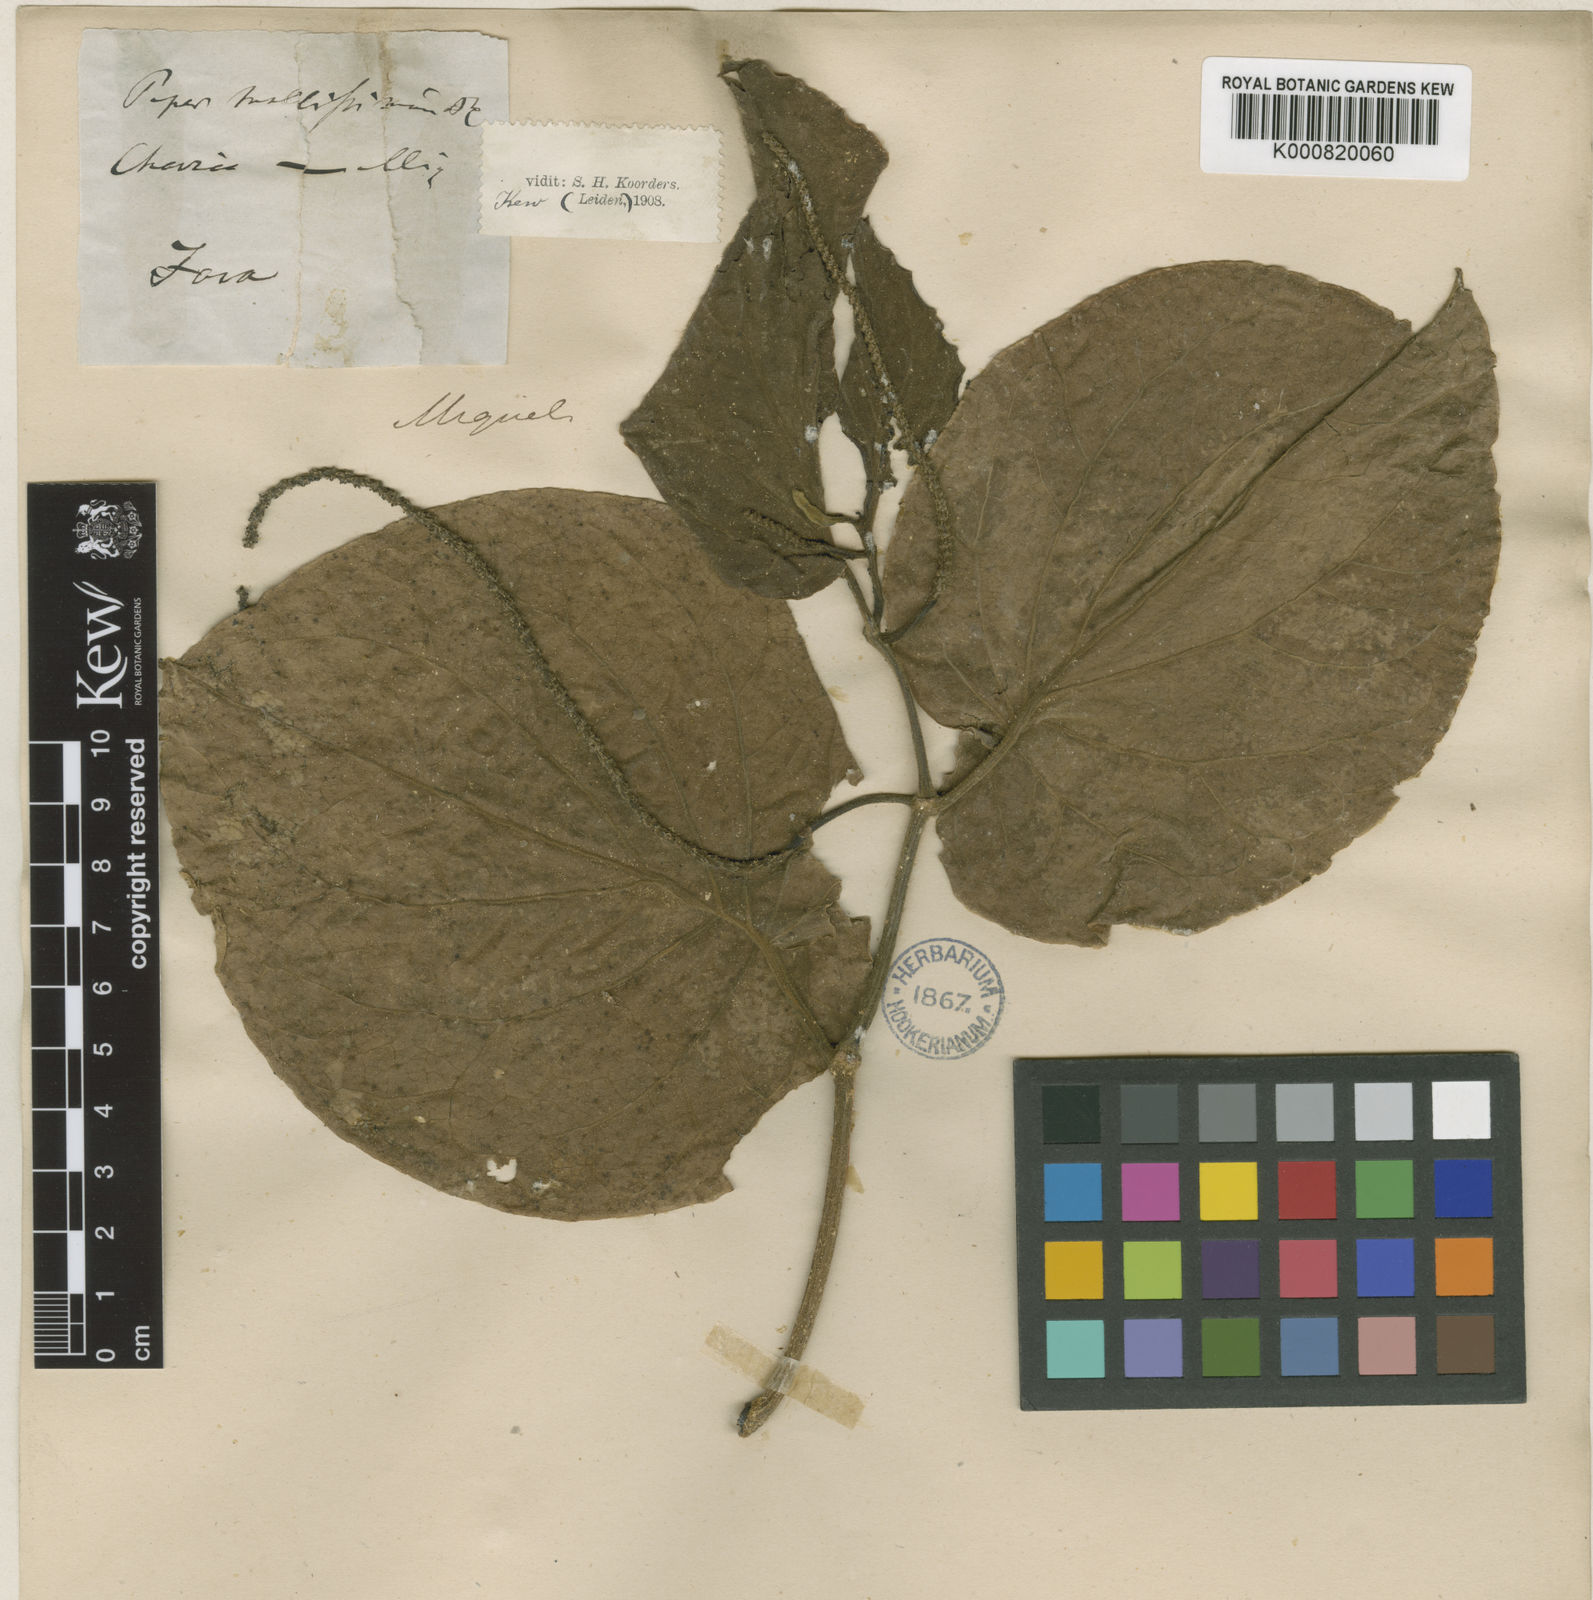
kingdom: Plantae
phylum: Tracheophyta
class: Magnoliopsida
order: Piperales
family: Piperaceae
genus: Piper
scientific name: Piper mollissimum
